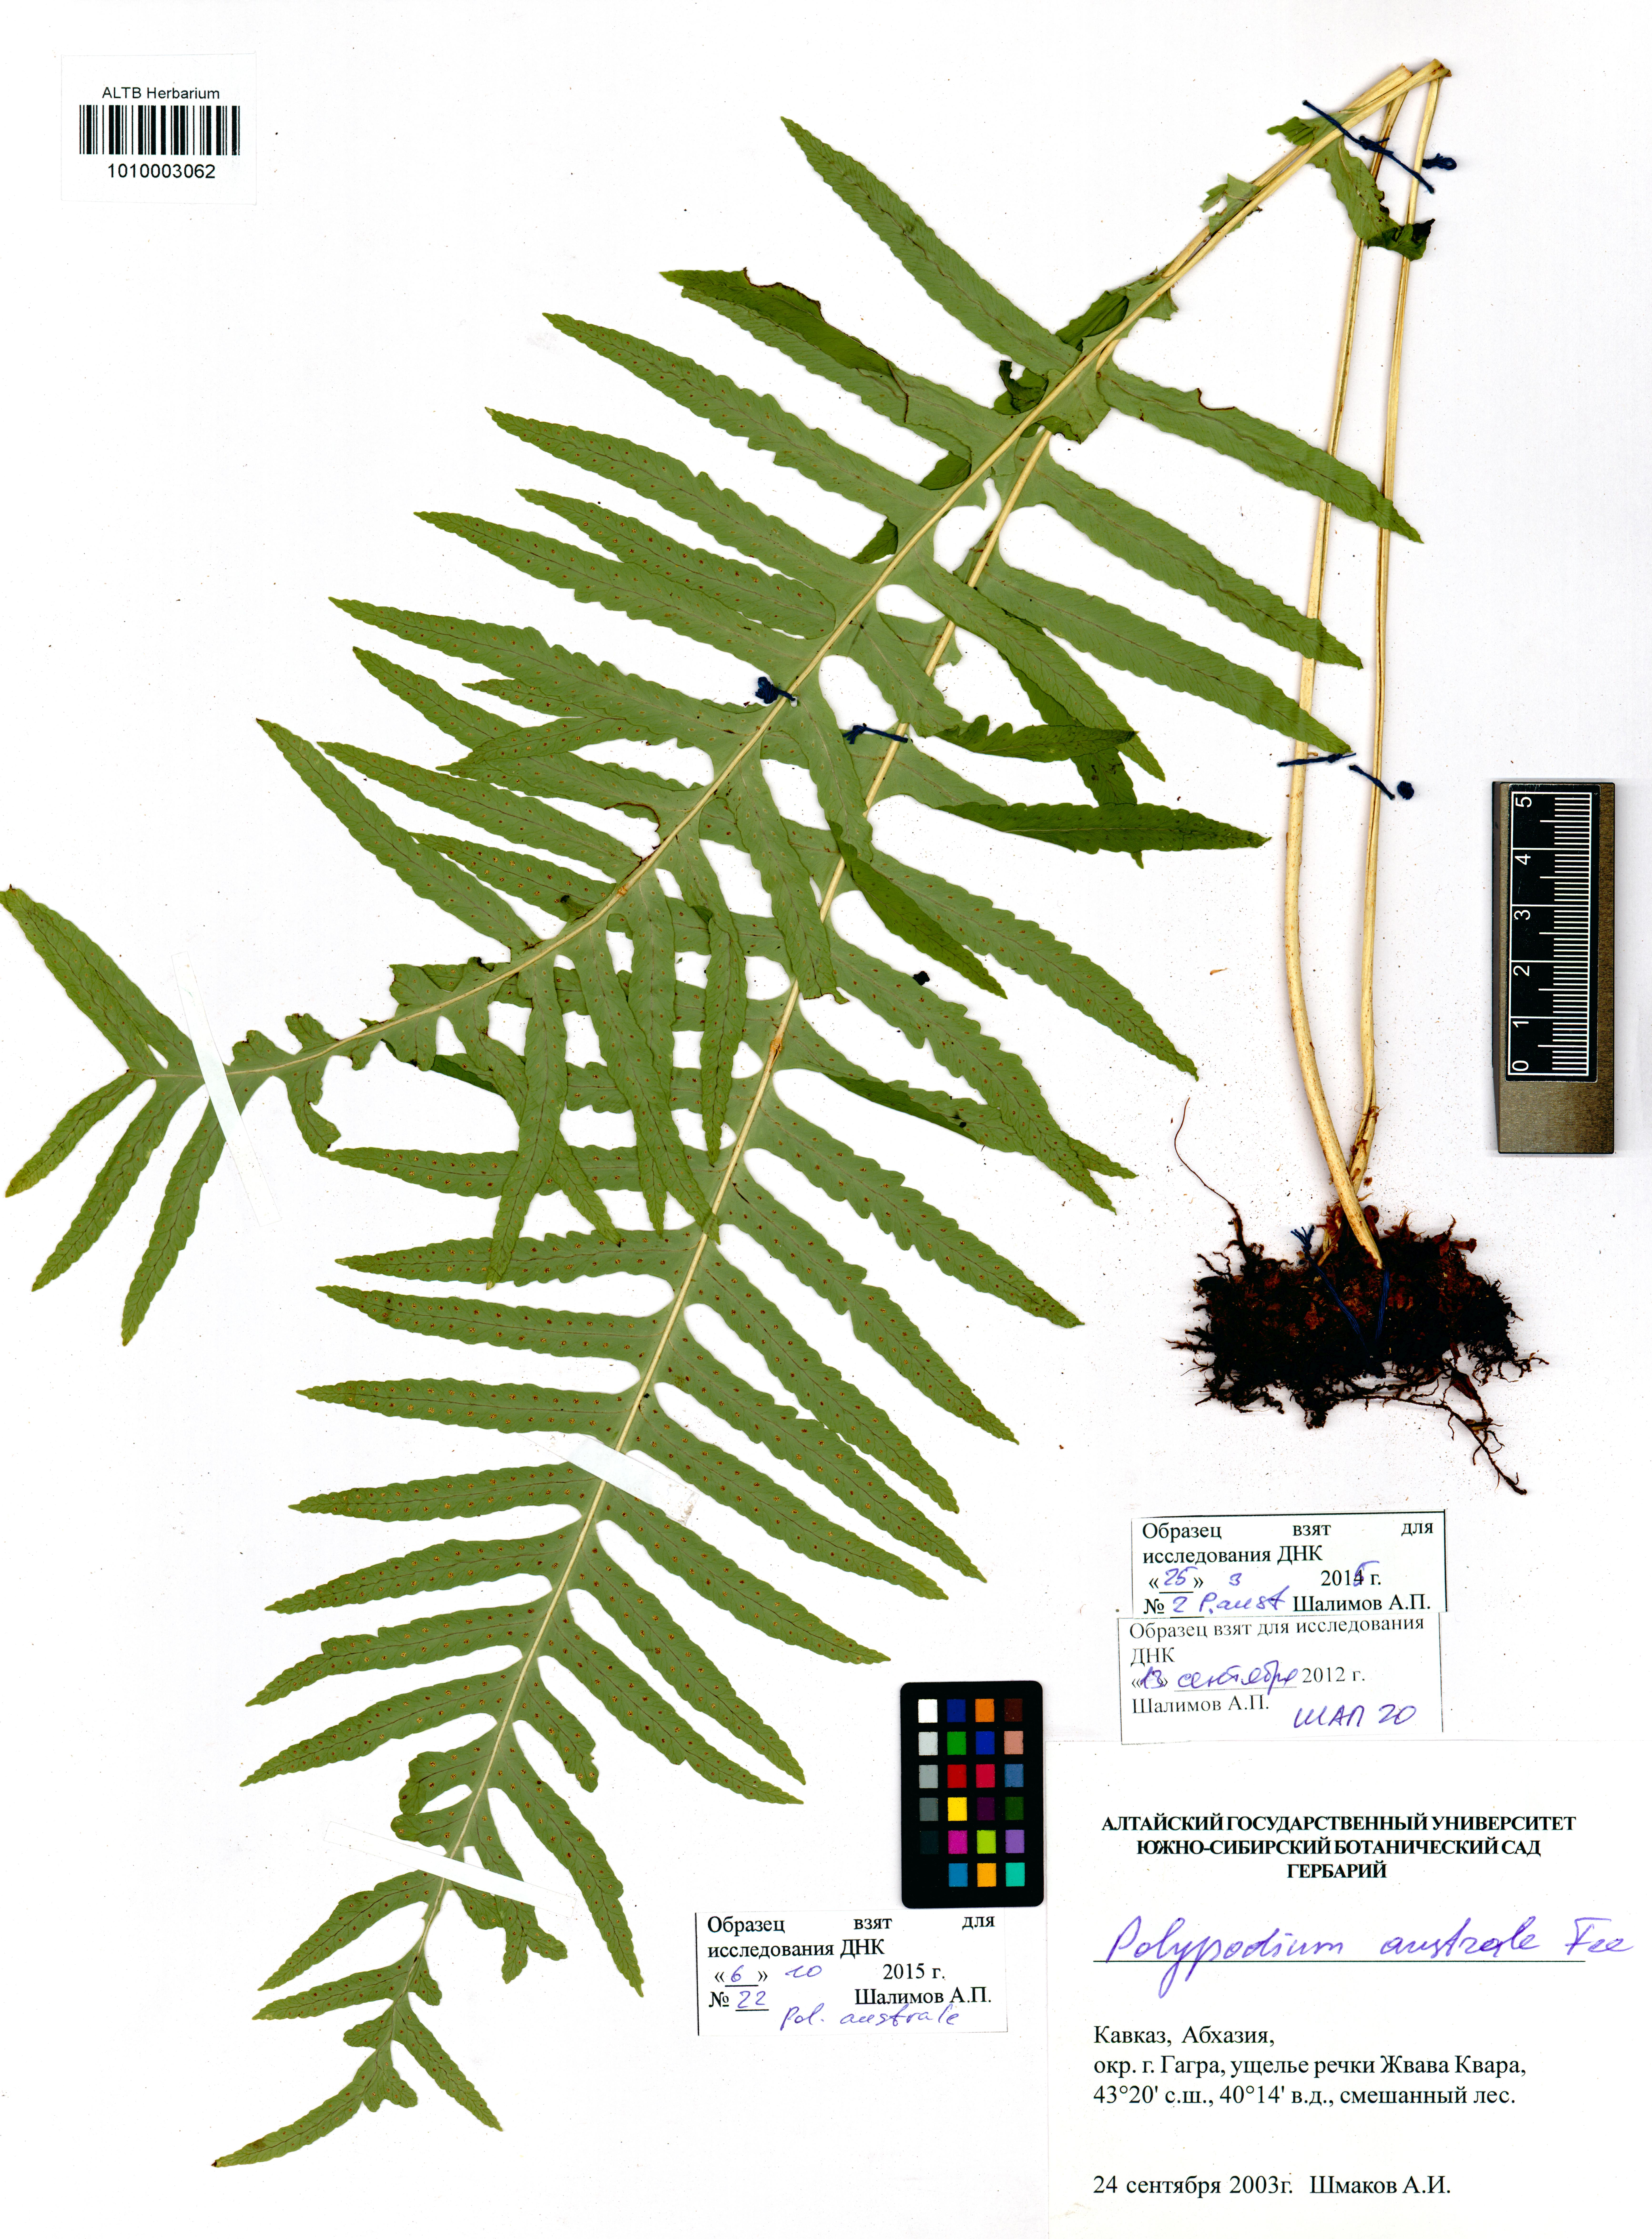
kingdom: Plantae
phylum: Tracheophyta
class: Polypodiopsida
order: Polypodiales
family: Polypodiaceae
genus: Polypodium
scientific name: Polypodium cambricum
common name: Southern polypody
